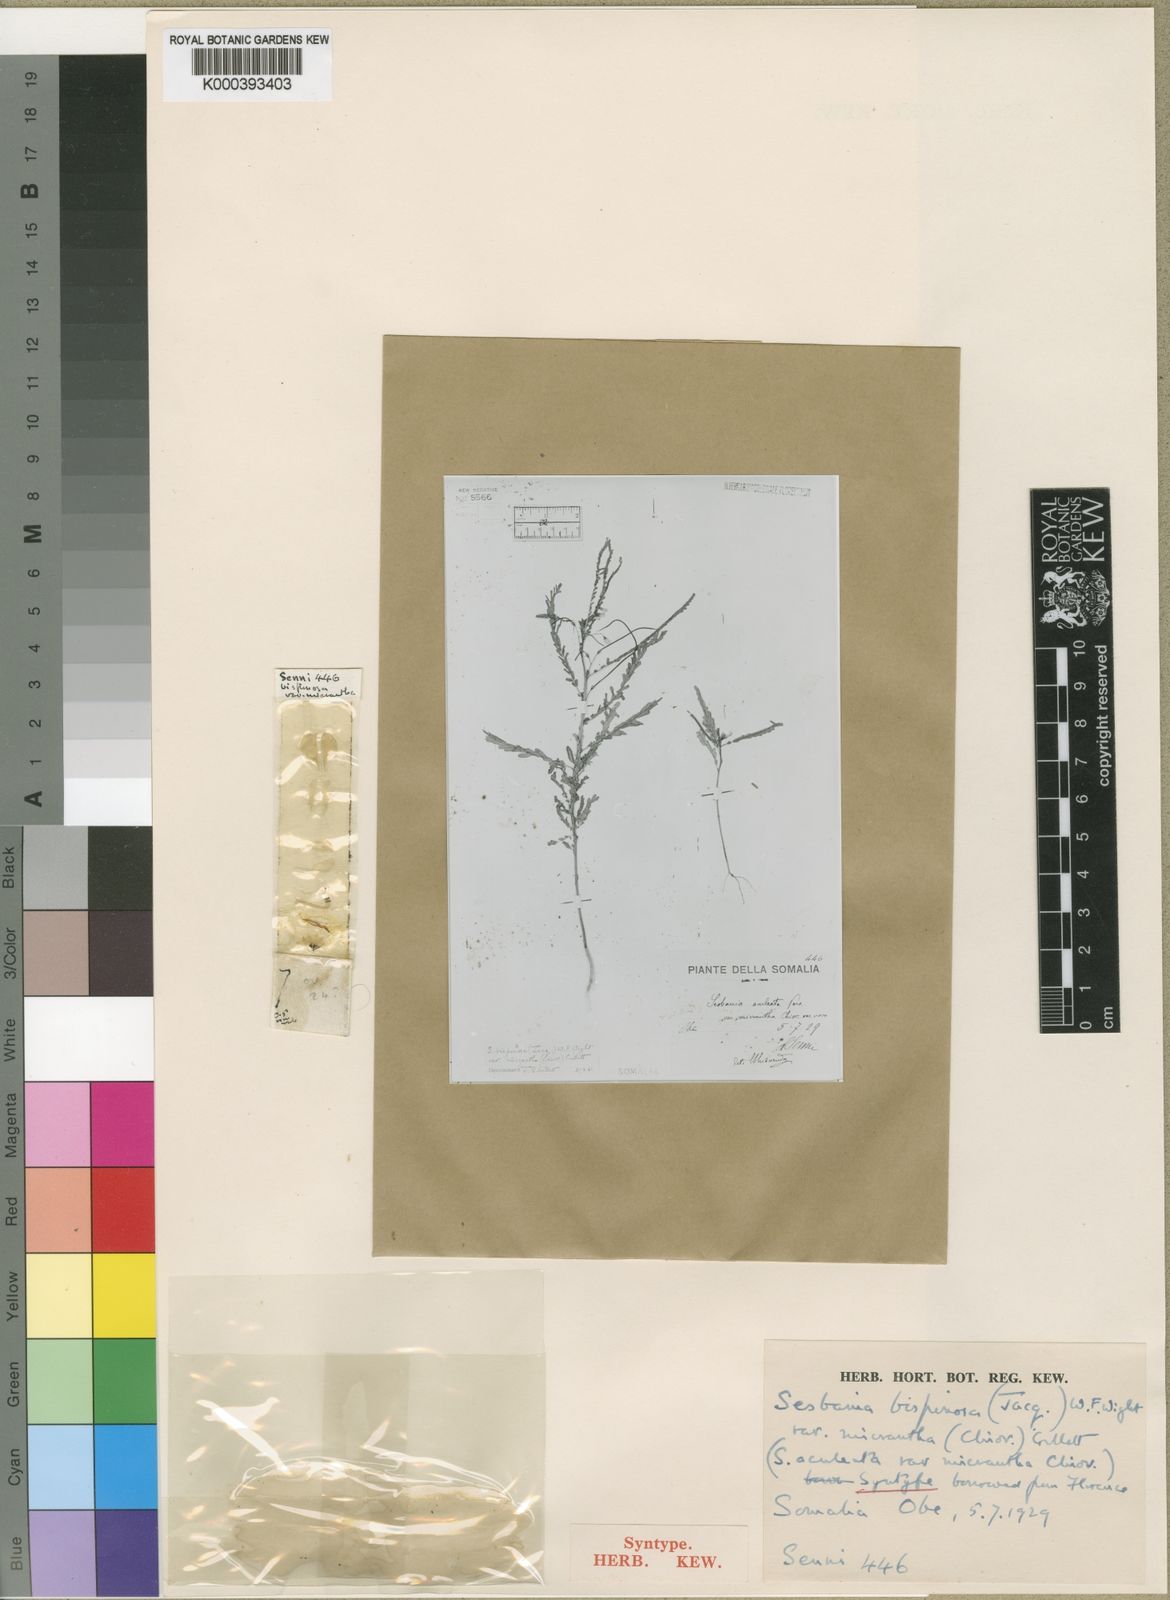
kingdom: Plantae
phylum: Tracheophyta
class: Magnoliopsida
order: Fabales
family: Fabaceae
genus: Sesbania
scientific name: Sesbania bispinosa
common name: Sesbania pea
